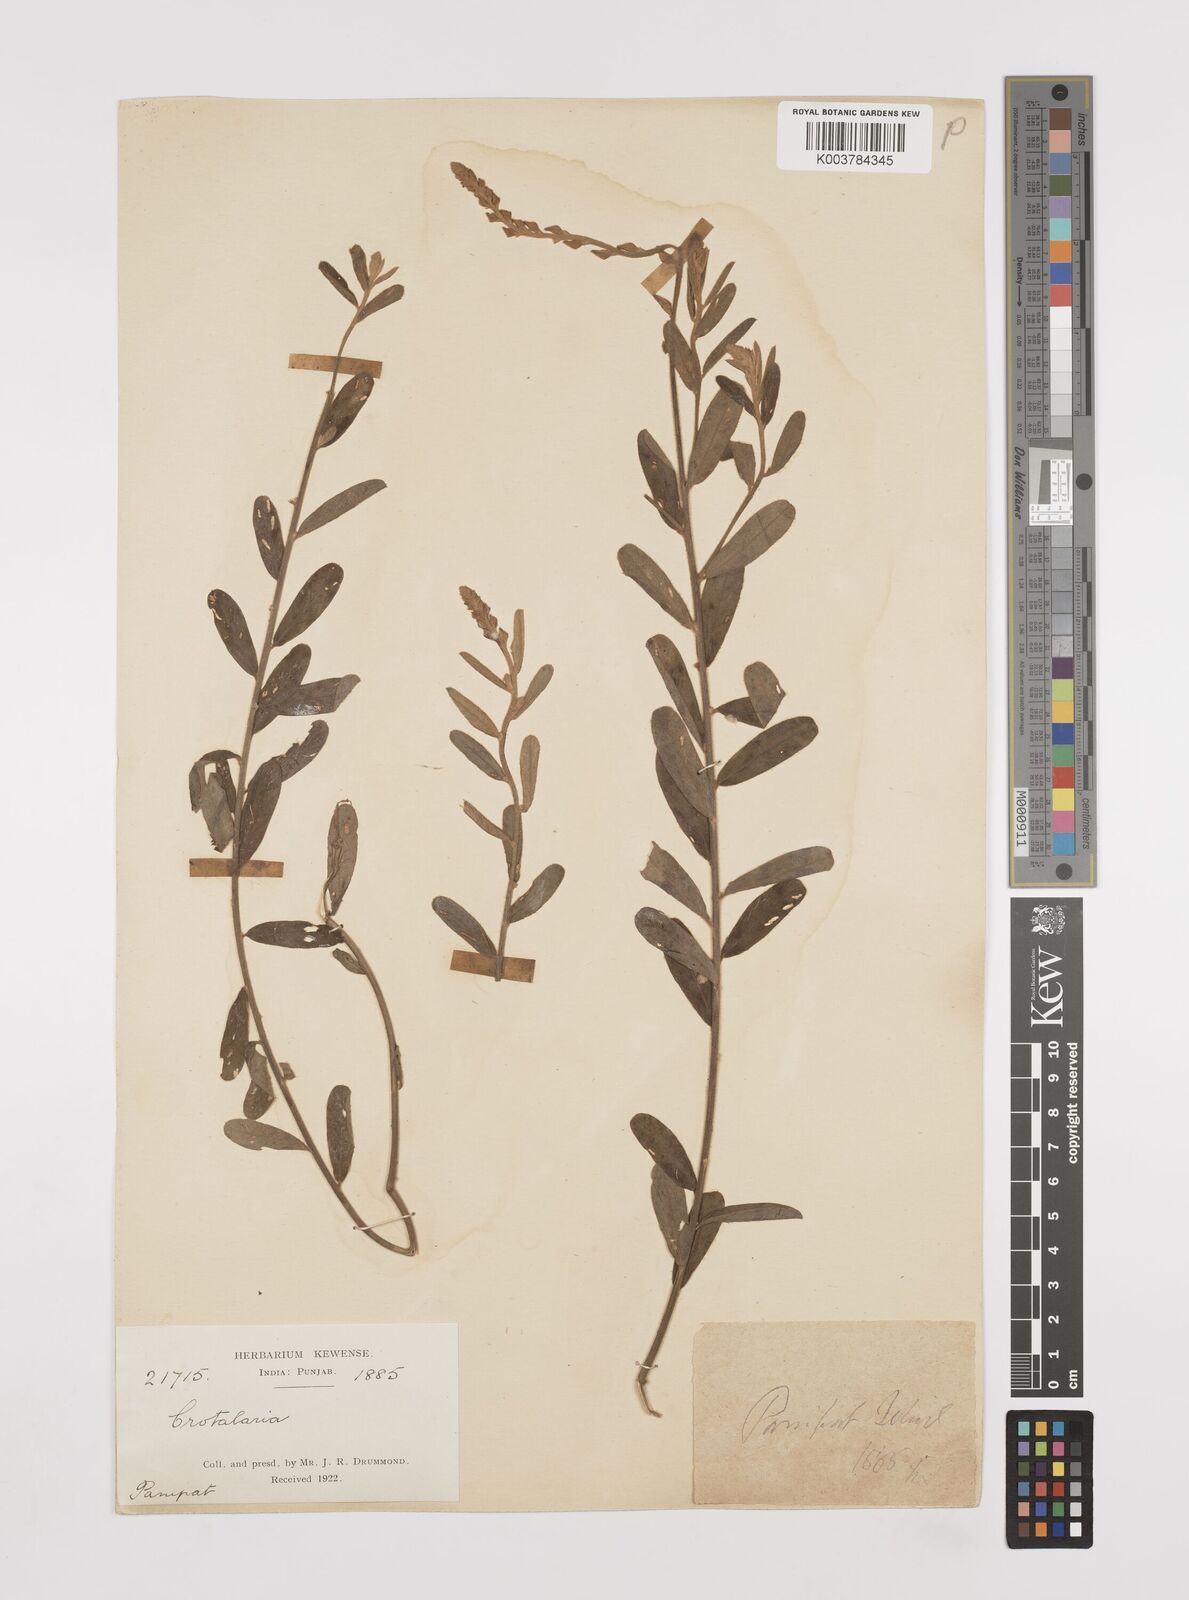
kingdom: Plantae
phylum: Tracheophyta
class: Magnoliopsida
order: Fabales
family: Fabaceae
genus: Crotalaria
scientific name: Crotalaria linifolia
